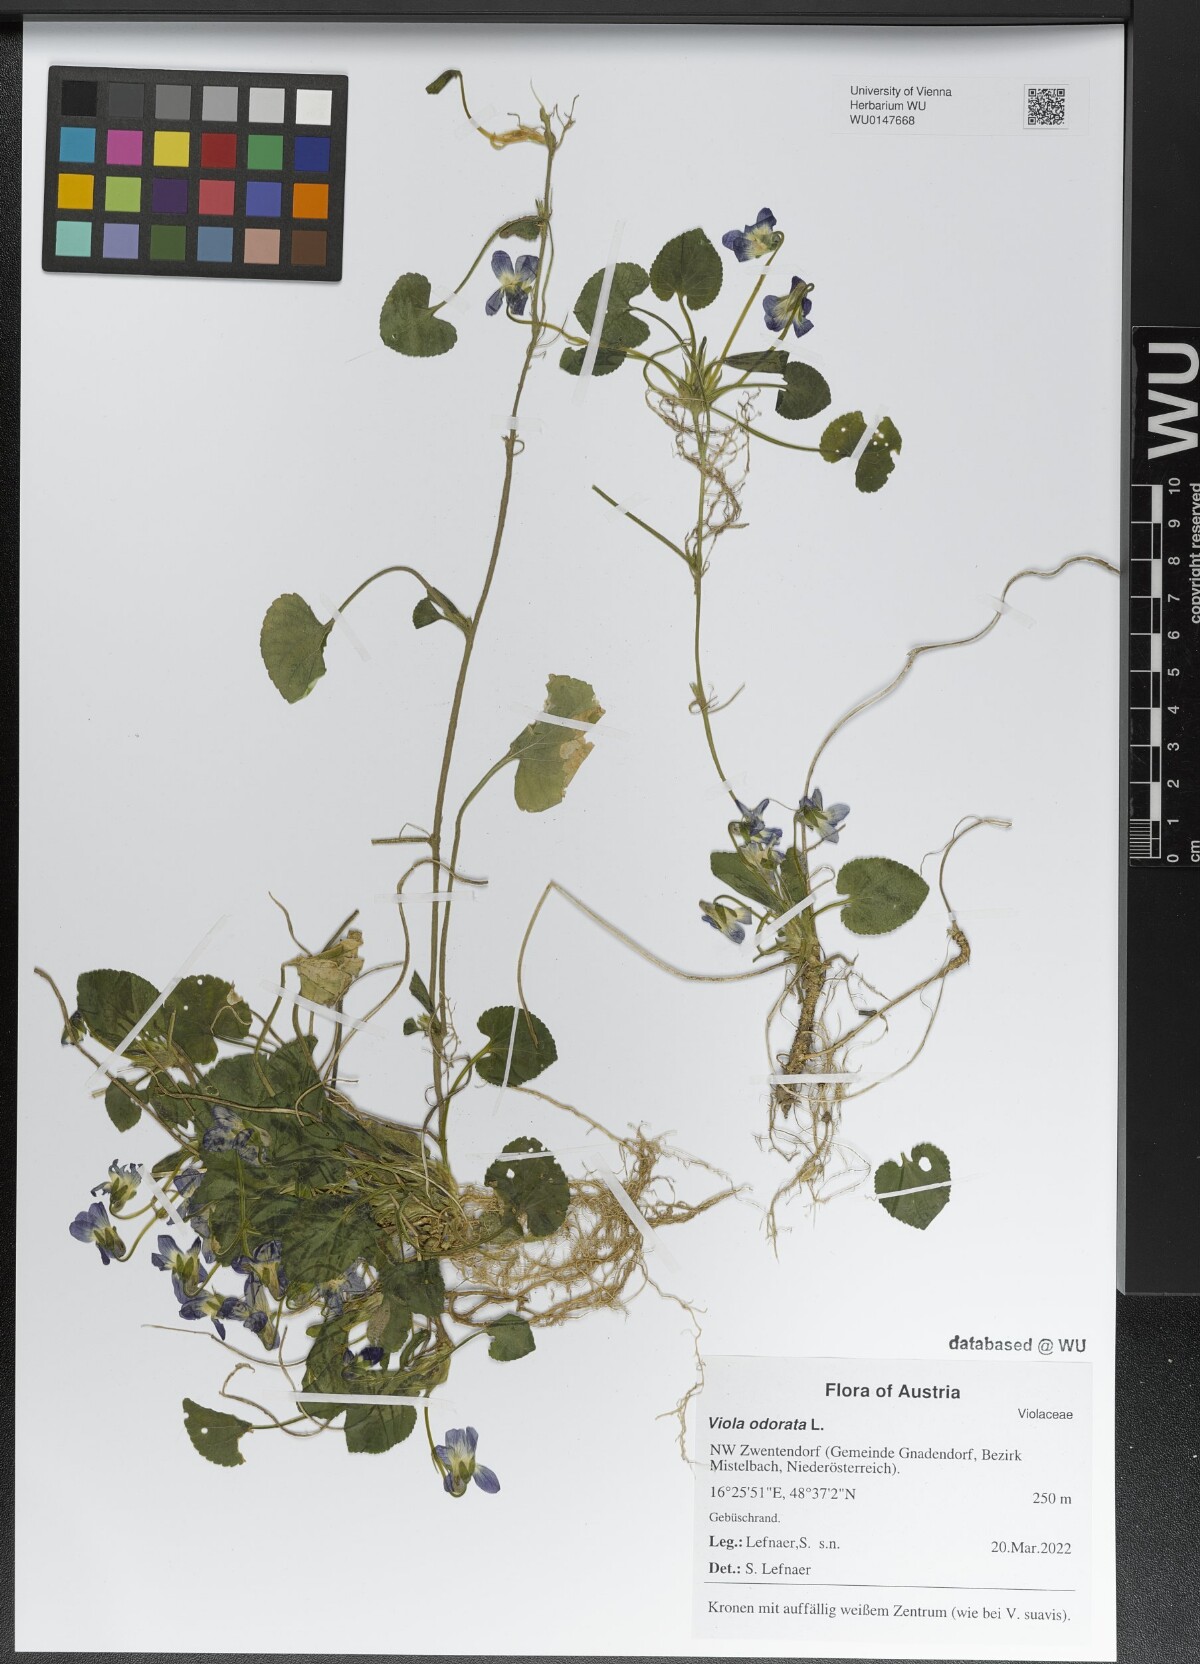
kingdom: Plantae
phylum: Tracheophyta
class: Magnoliopsida
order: Malpighiales
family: Violaceae
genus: Viola
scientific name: Viola odorata
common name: Sweet violet
